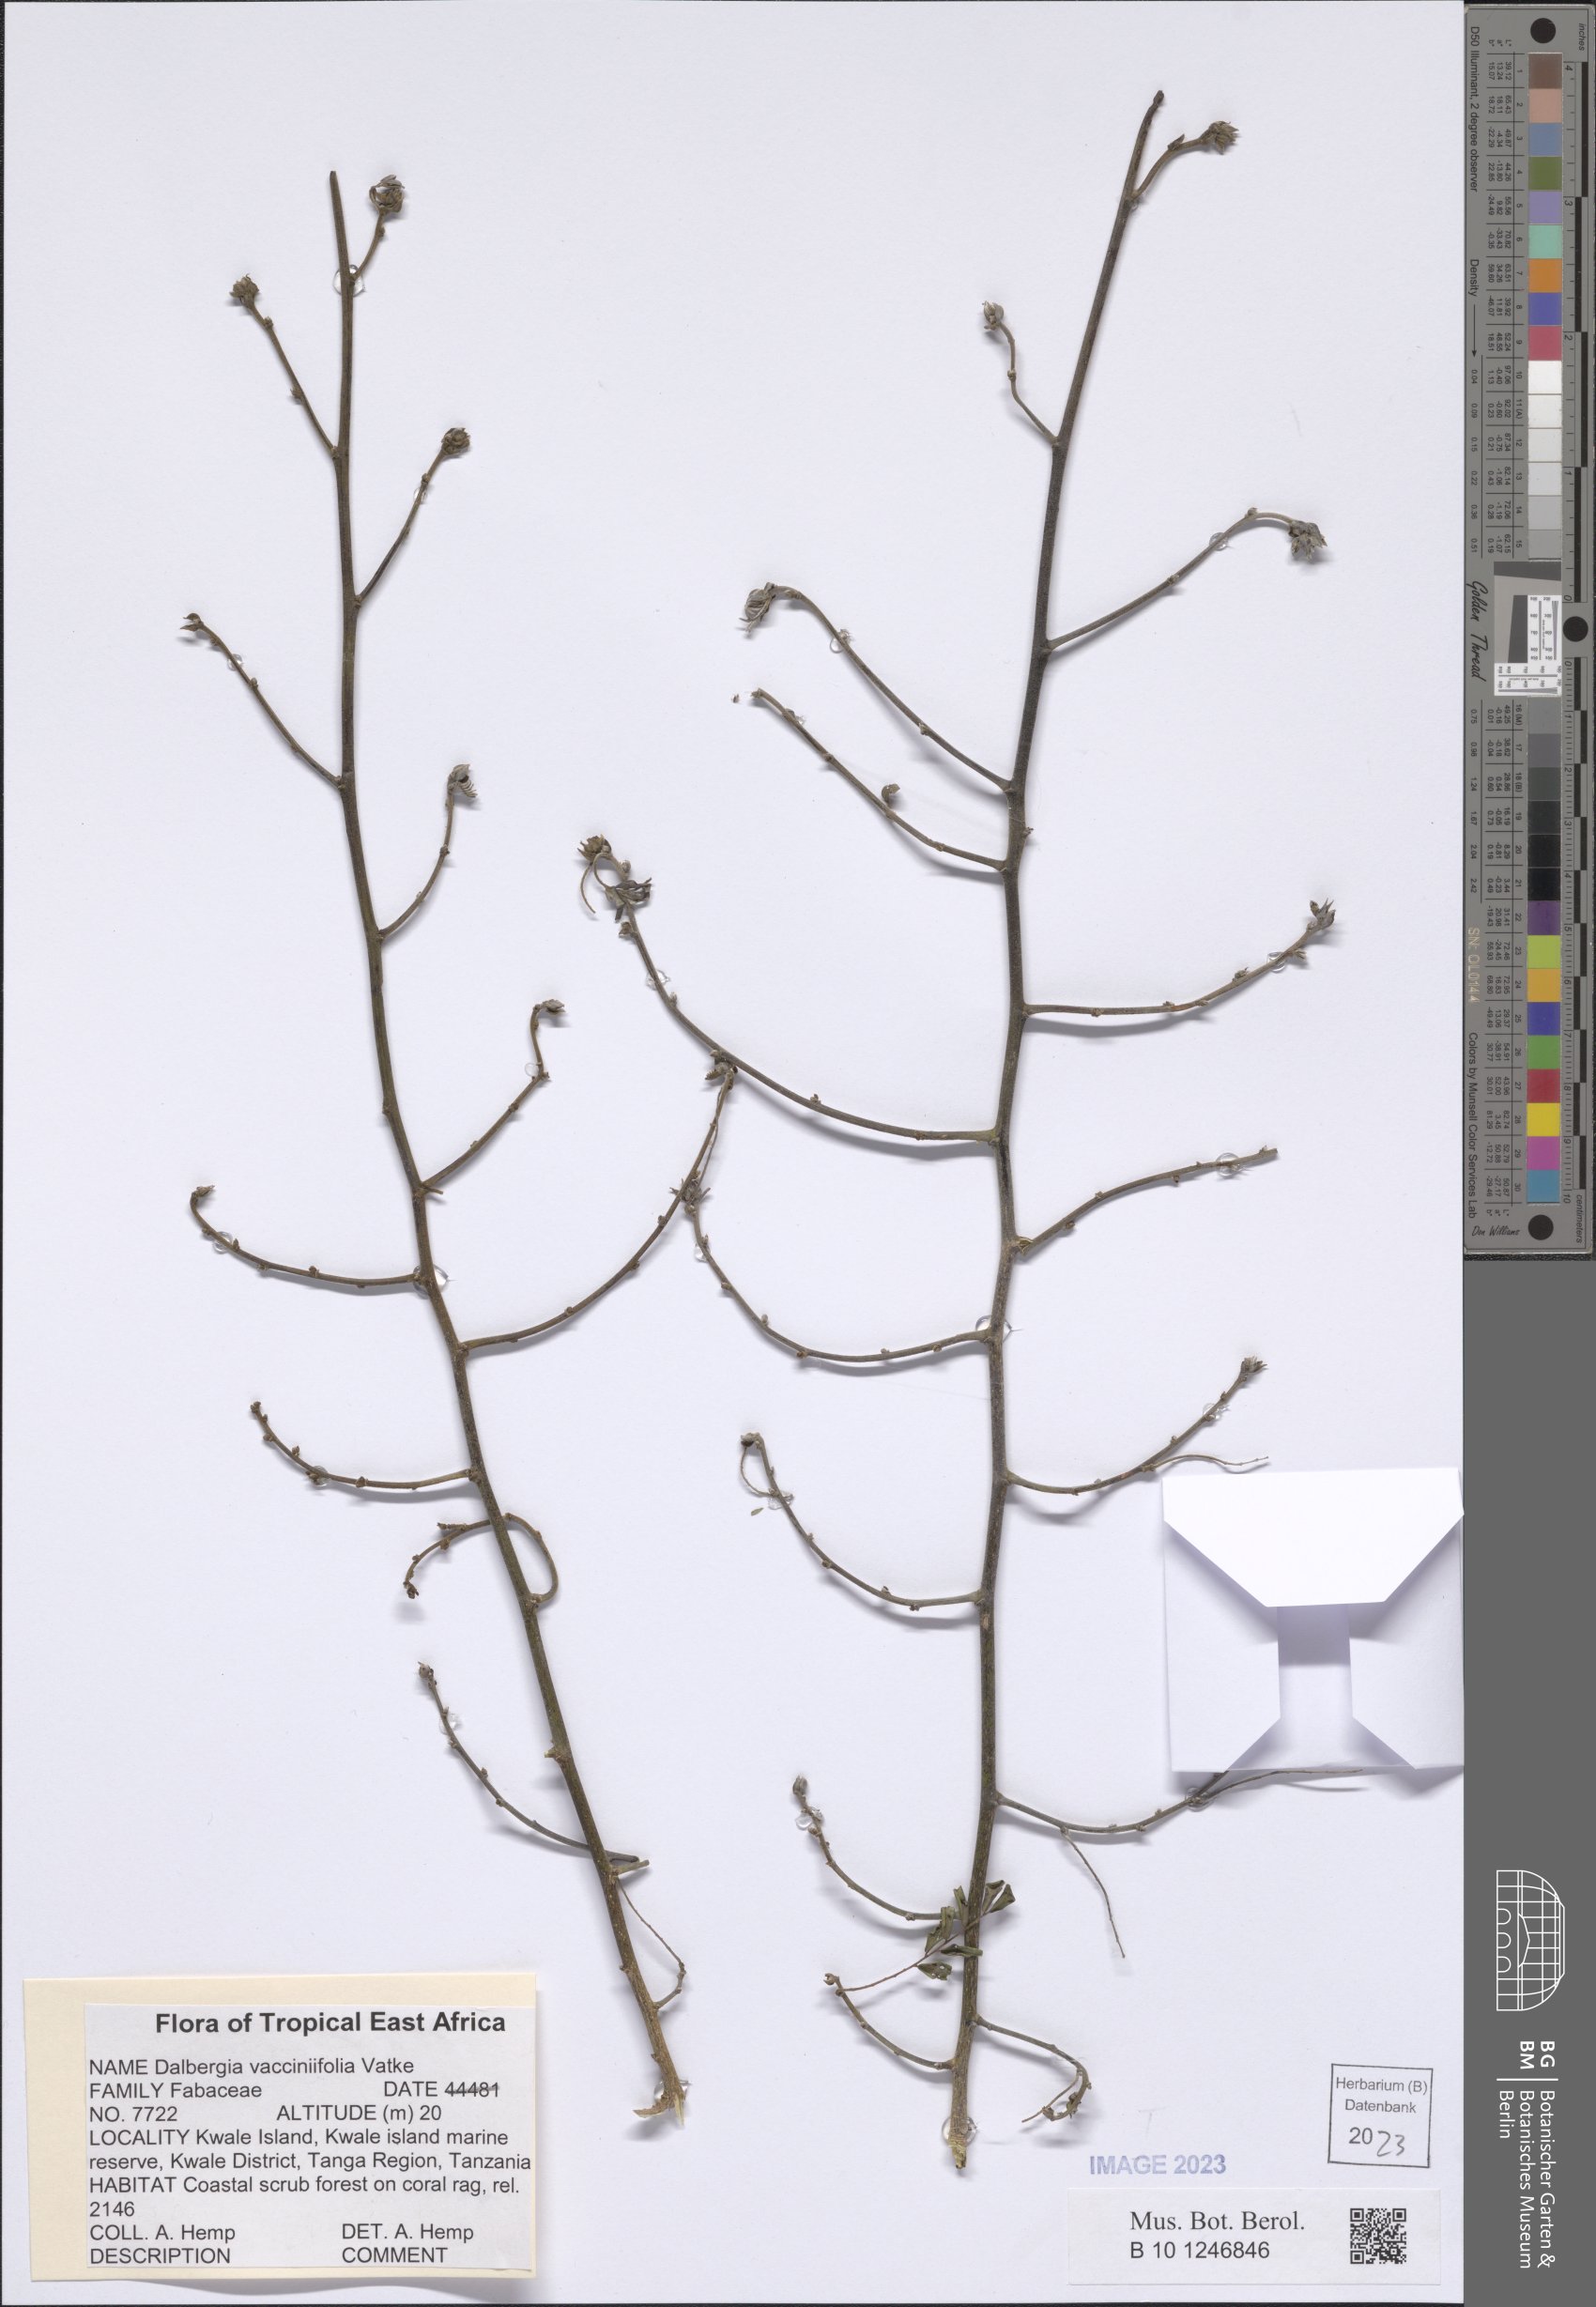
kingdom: Plantae
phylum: Tracheophyta
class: Magnoliopsida
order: Fabales
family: Fabaceae
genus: Dalbergia
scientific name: Dalbergia vacciniifolia
